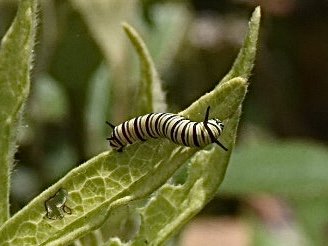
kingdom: Animalia
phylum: Arthropoda
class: Insecta
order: Lepidoptera
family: Nymphalidae
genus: Danaus
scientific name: Danaus plexippus
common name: Monarch
